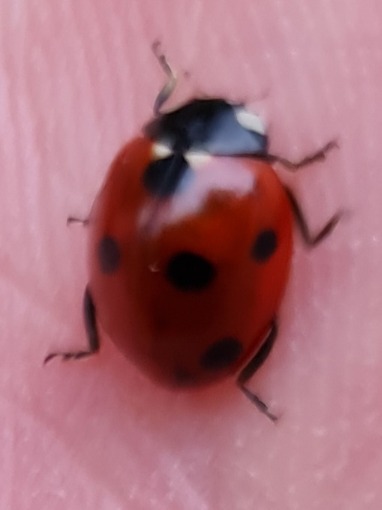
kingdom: Animalia
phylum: Arthropoda
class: Insecta
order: Coleoptera
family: Coccinellidae
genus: Coccinella
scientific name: Coccinella septempunctata
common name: Syvplettet mariehøne
